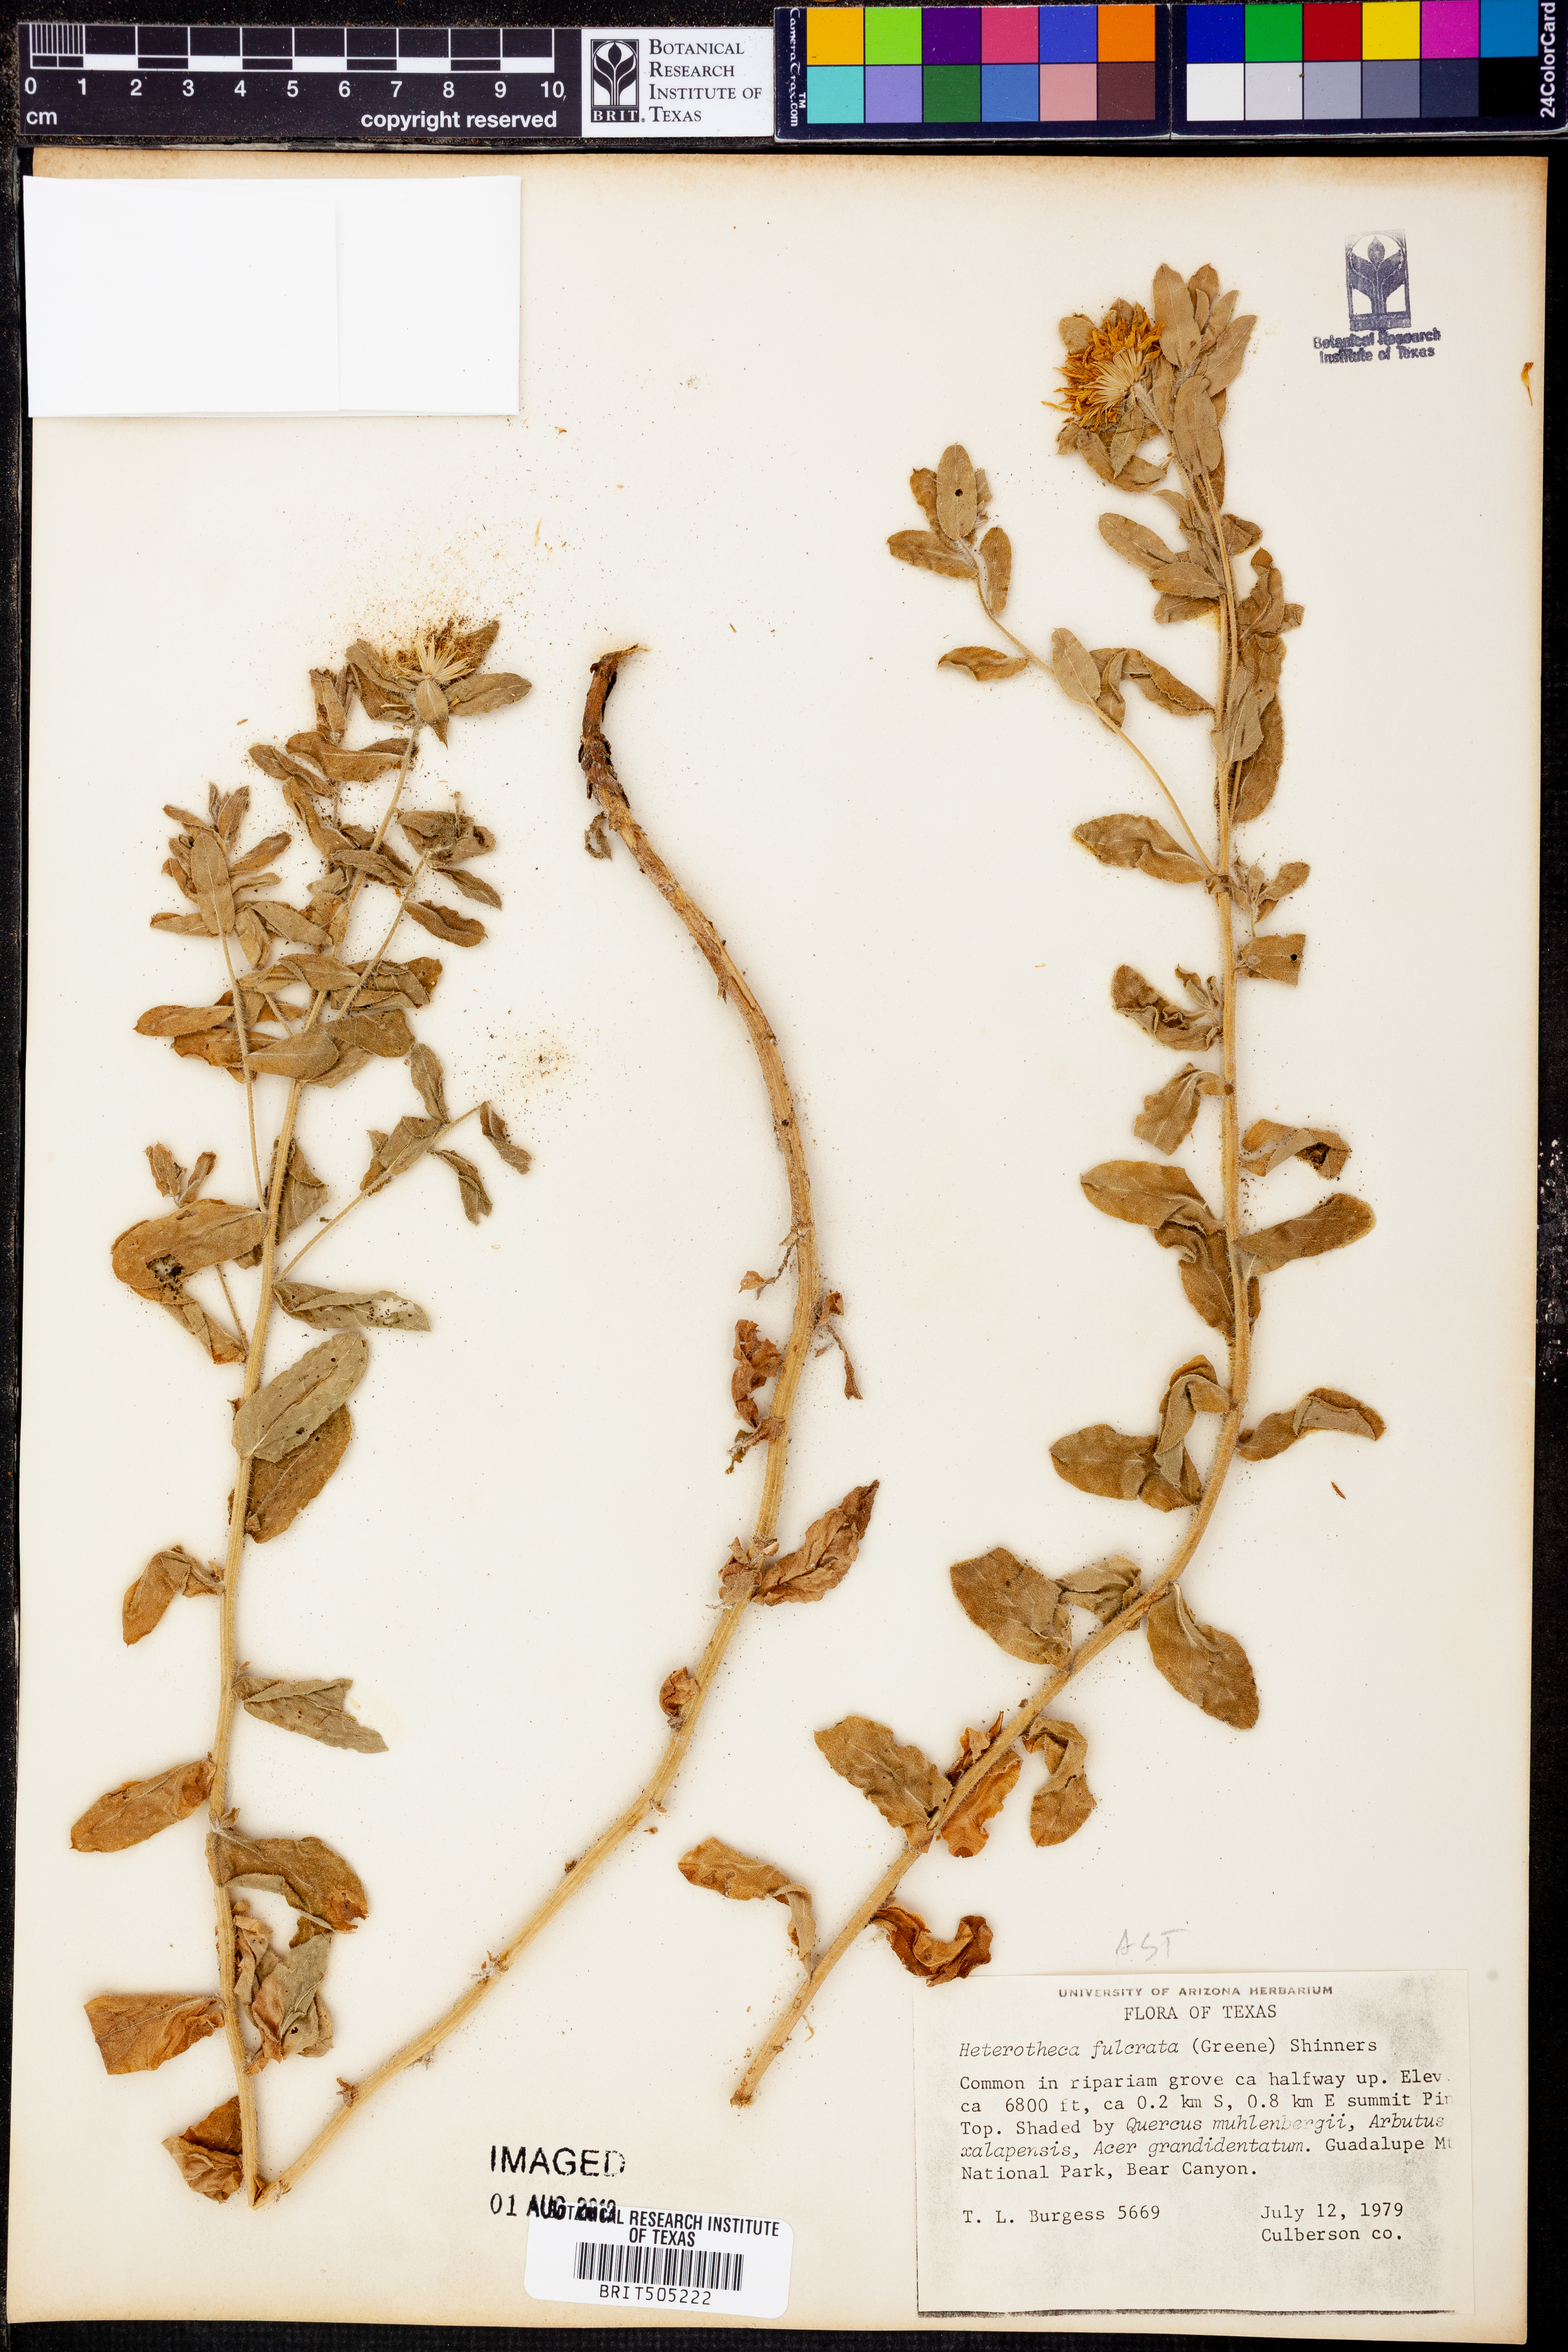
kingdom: Plantae
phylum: Tracheophyta
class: Magnoliopsida
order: Asterales
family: Asteraceae
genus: Heterotheca
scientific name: Heterotheca fulcrata
